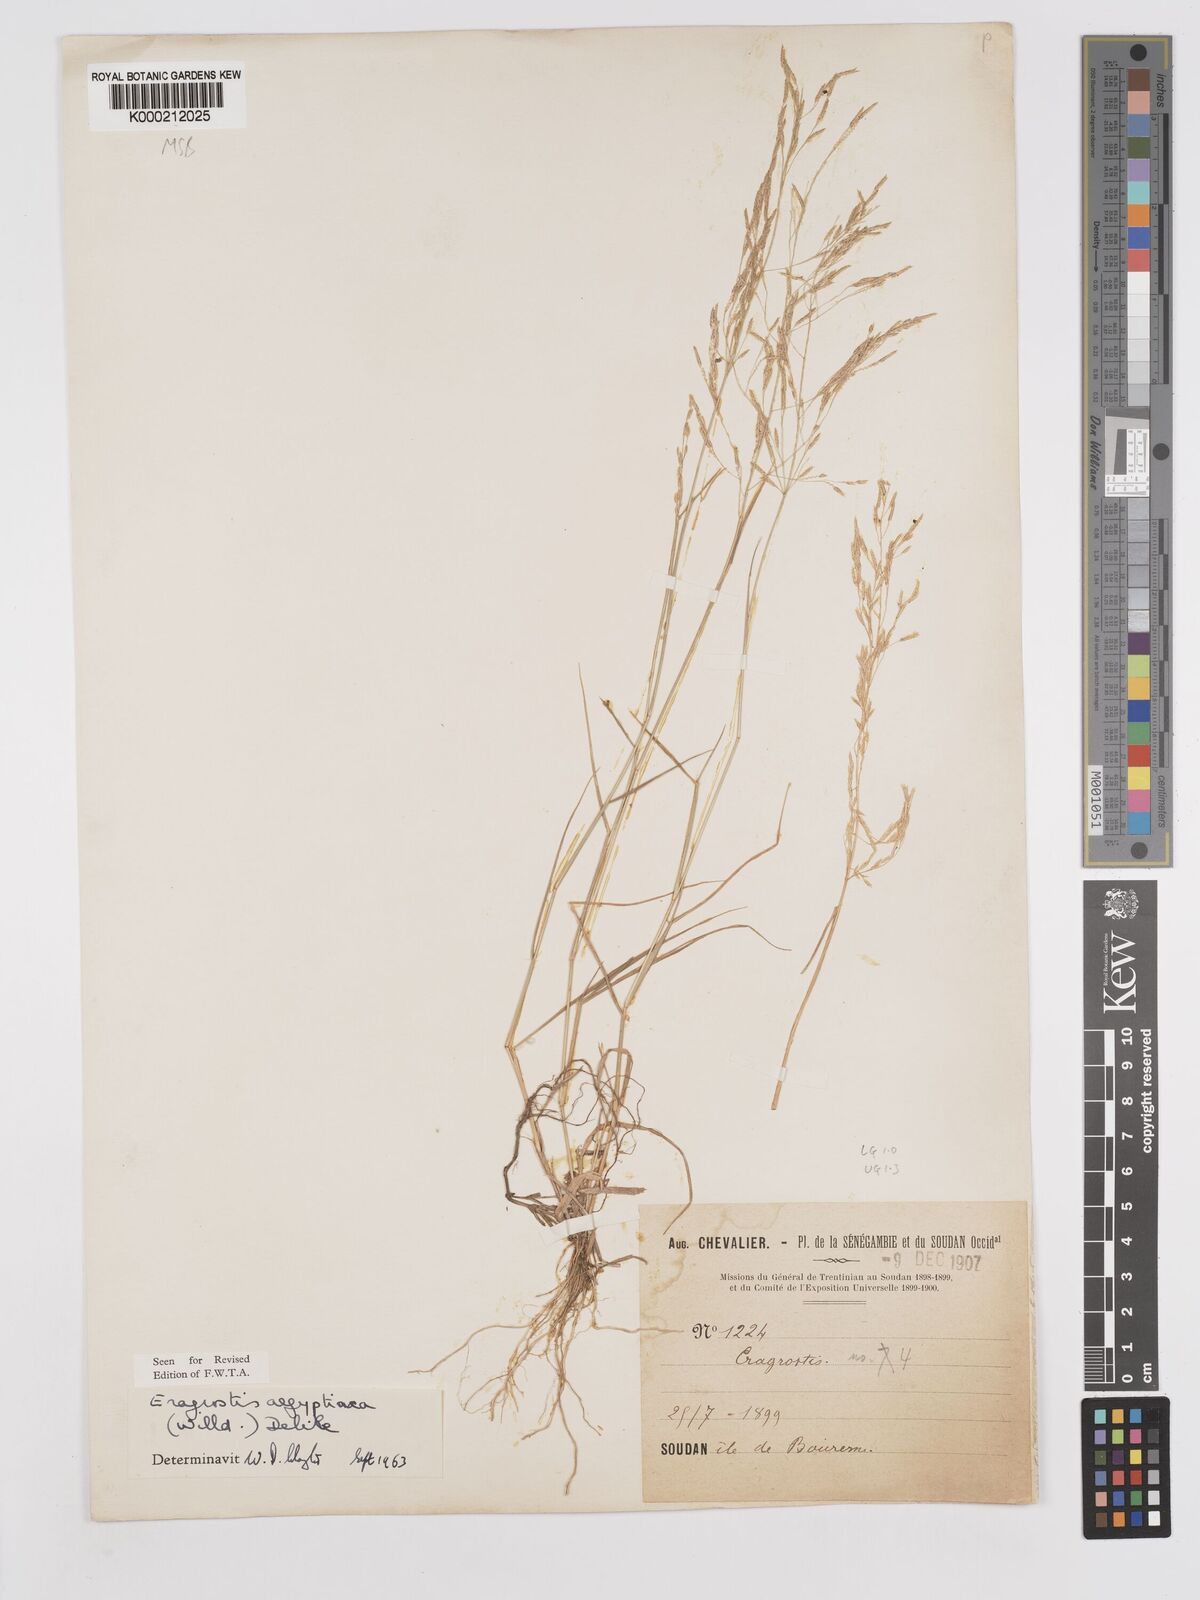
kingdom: Plantae
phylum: Tracheophyta
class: Liliopsida
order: Poales
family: Poaceae
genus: Eragrostis
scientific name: Eragrostis aegyptiaca
